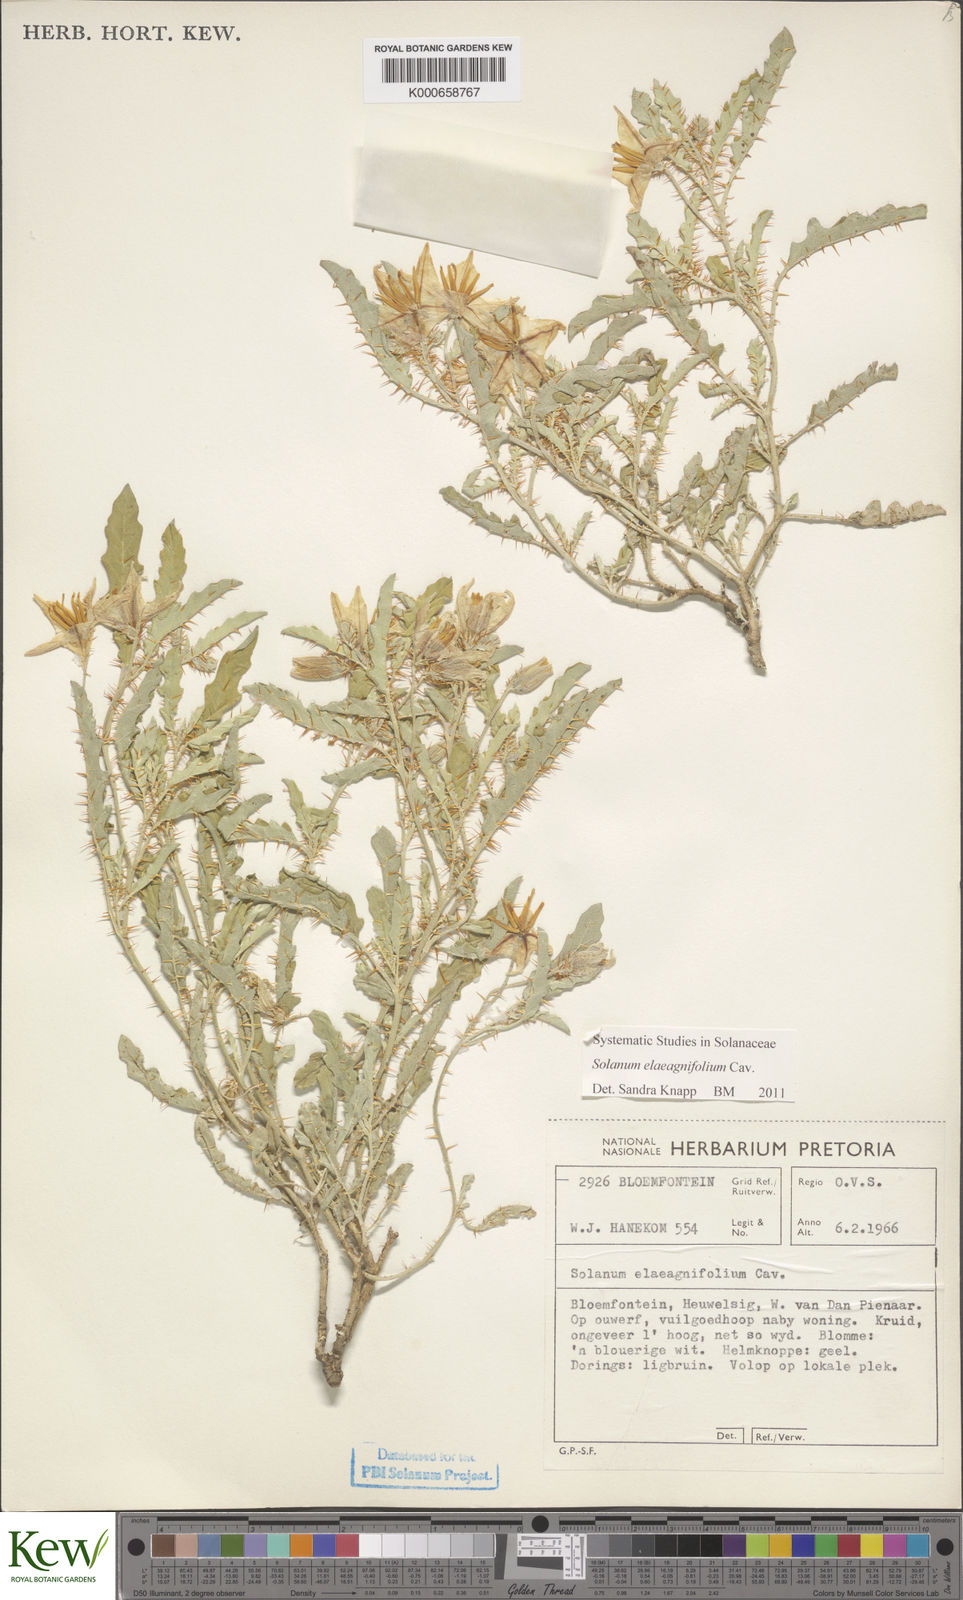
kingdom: Plantae
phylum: Tracheophyta
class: Magnoliopsida
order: Solanales
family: Solanaceae
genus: Solanum
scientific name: Solanum elaeagnifolium
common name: Silverleaf nightshade
